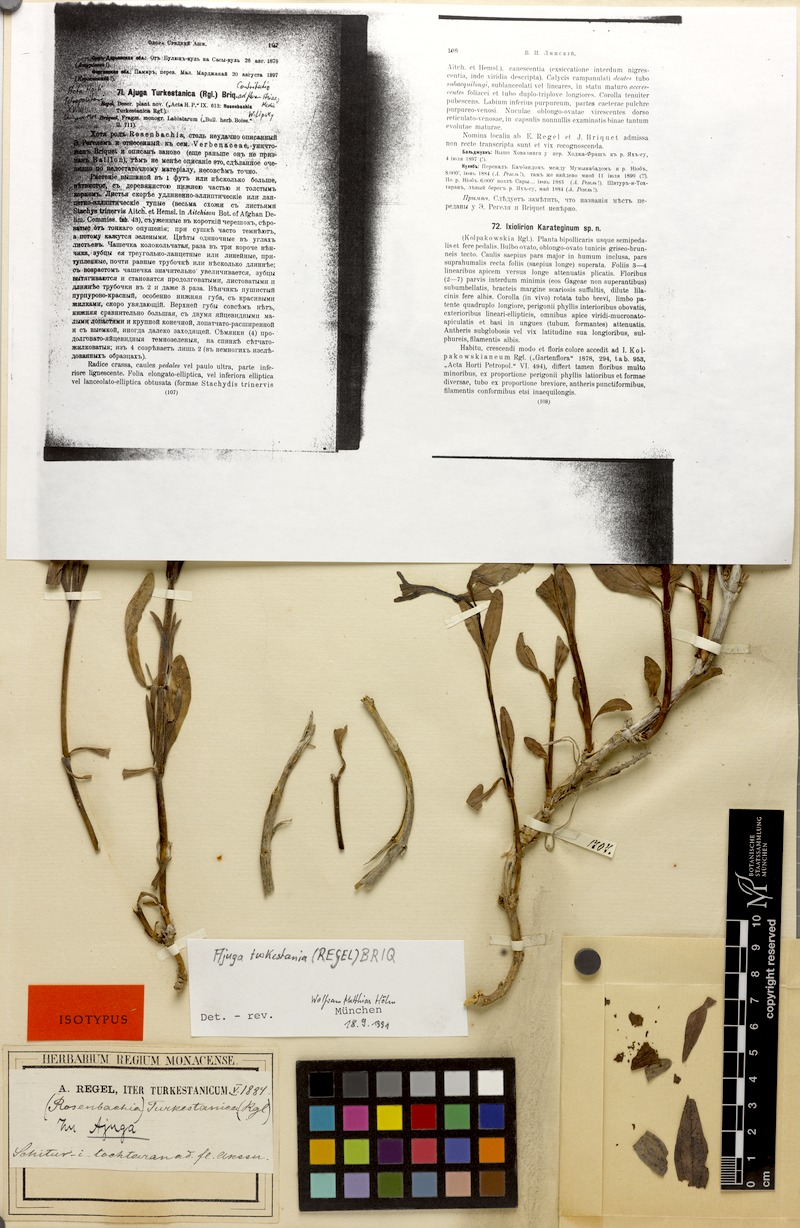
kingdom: Plantae
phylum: Tracheophyta
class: Magnoliopsida
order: Lamiales
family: Lamiaceae
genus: Ajuga
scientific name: Ajuga turkestanica
